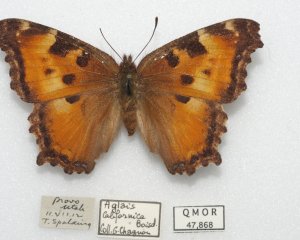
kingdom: Animalia
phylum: Arthropoda
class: Insecta
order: Lepidoptera
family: Nymphalidae
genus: Nymphalis
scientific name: Nymphalis californica
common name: California Tortoiseshell
